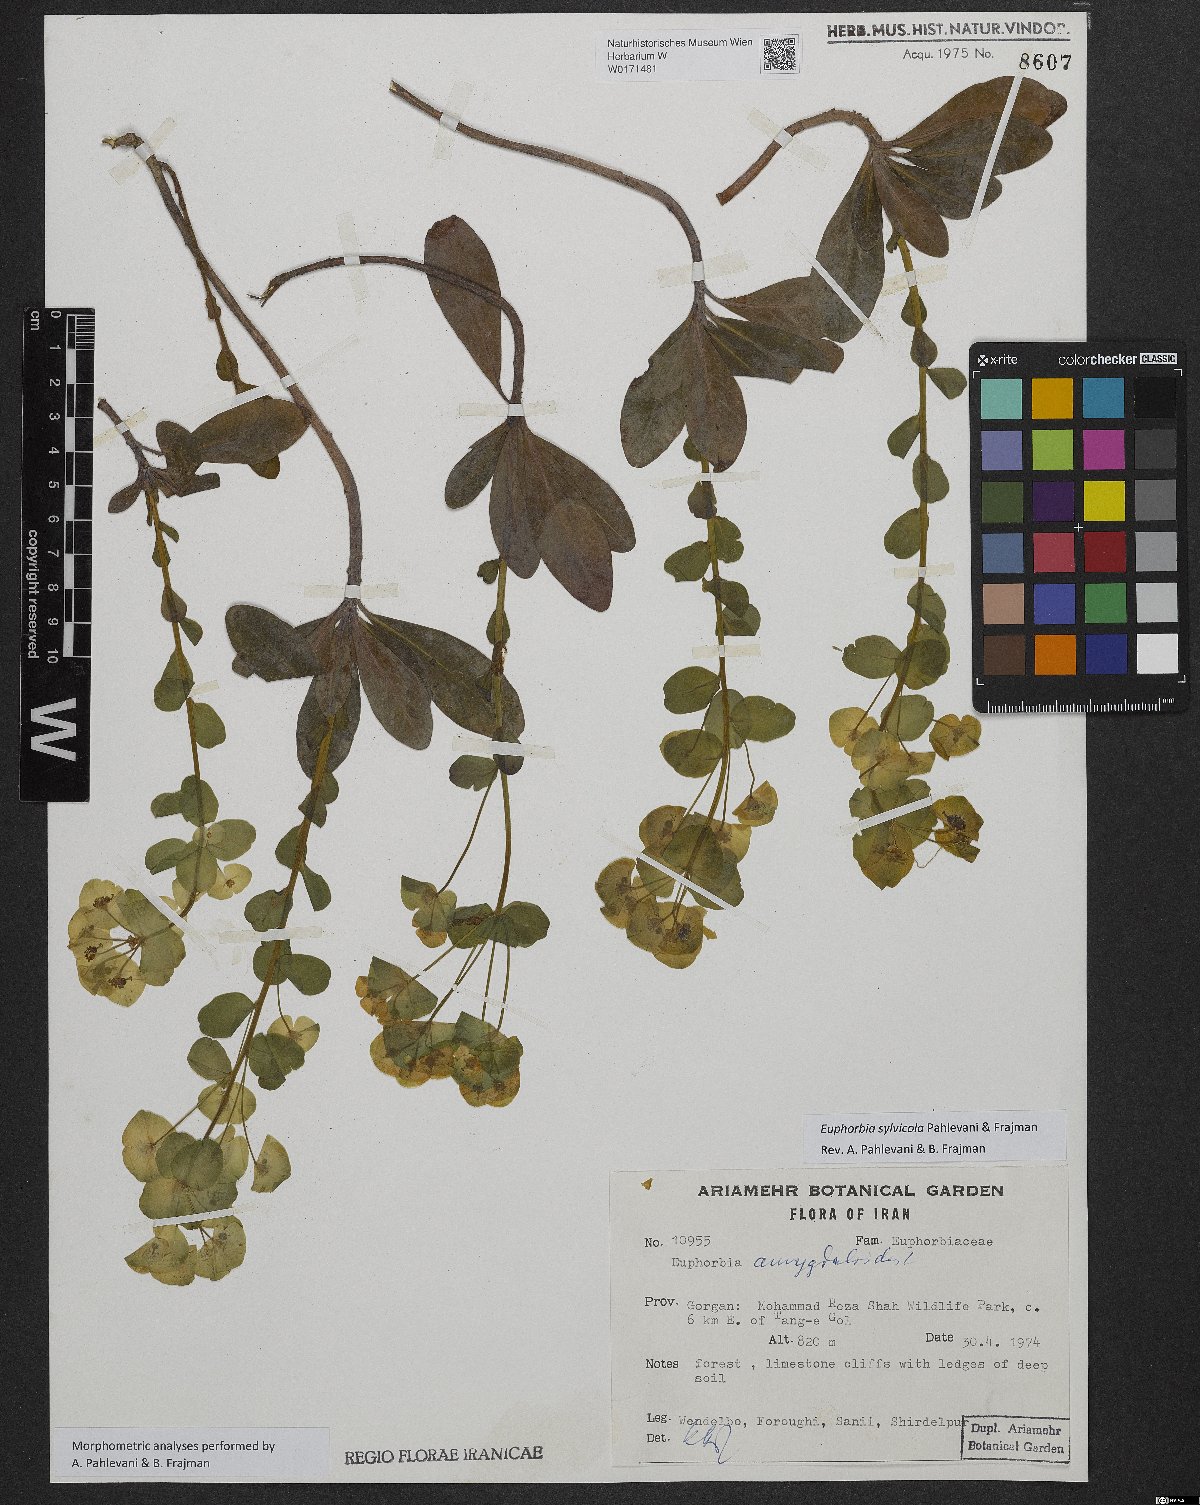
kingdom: Plantae
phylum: Tracheophyta
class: Magnoliopsida
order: Malpighiales
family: Euphorbiaceae
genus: Euphorbia
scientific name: Euphorbia juttae
